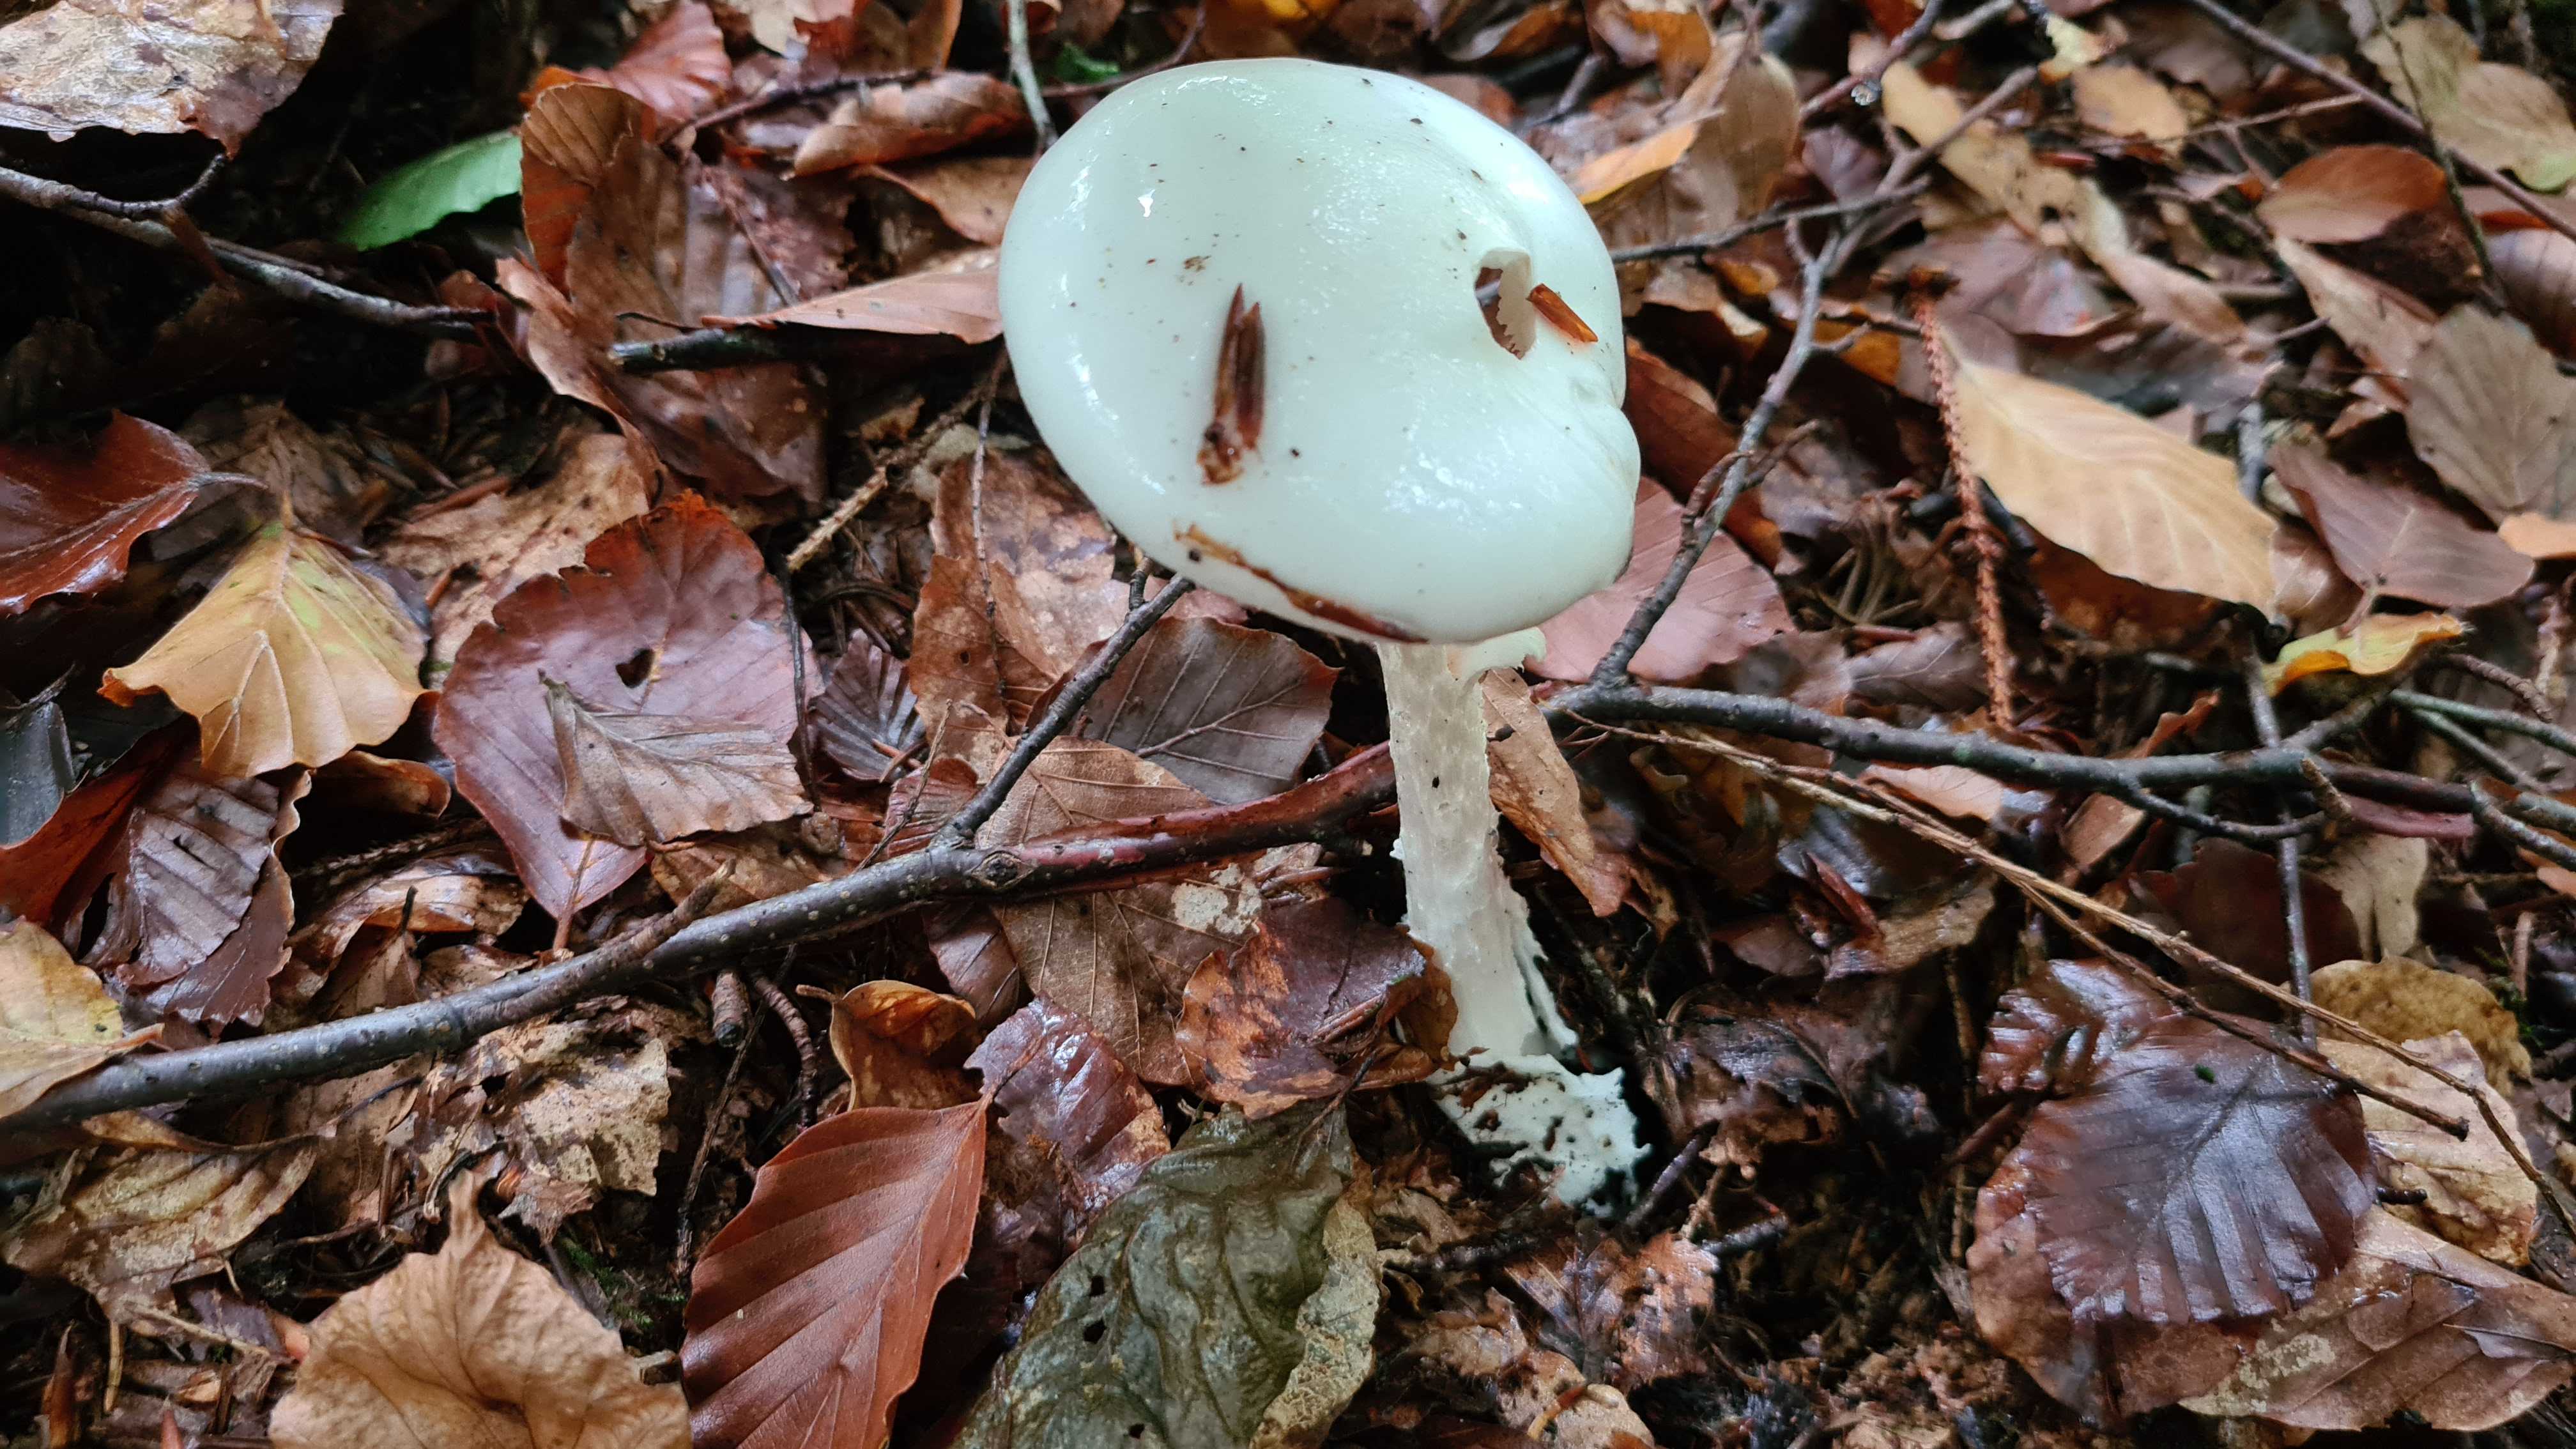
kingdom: Fungi
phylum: Basidiomycota
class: Agaricomycetes
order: Agaricales
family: Amanitaceae
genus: Amanita
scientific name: Amanita virosa
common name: snehvid fluesvamp
